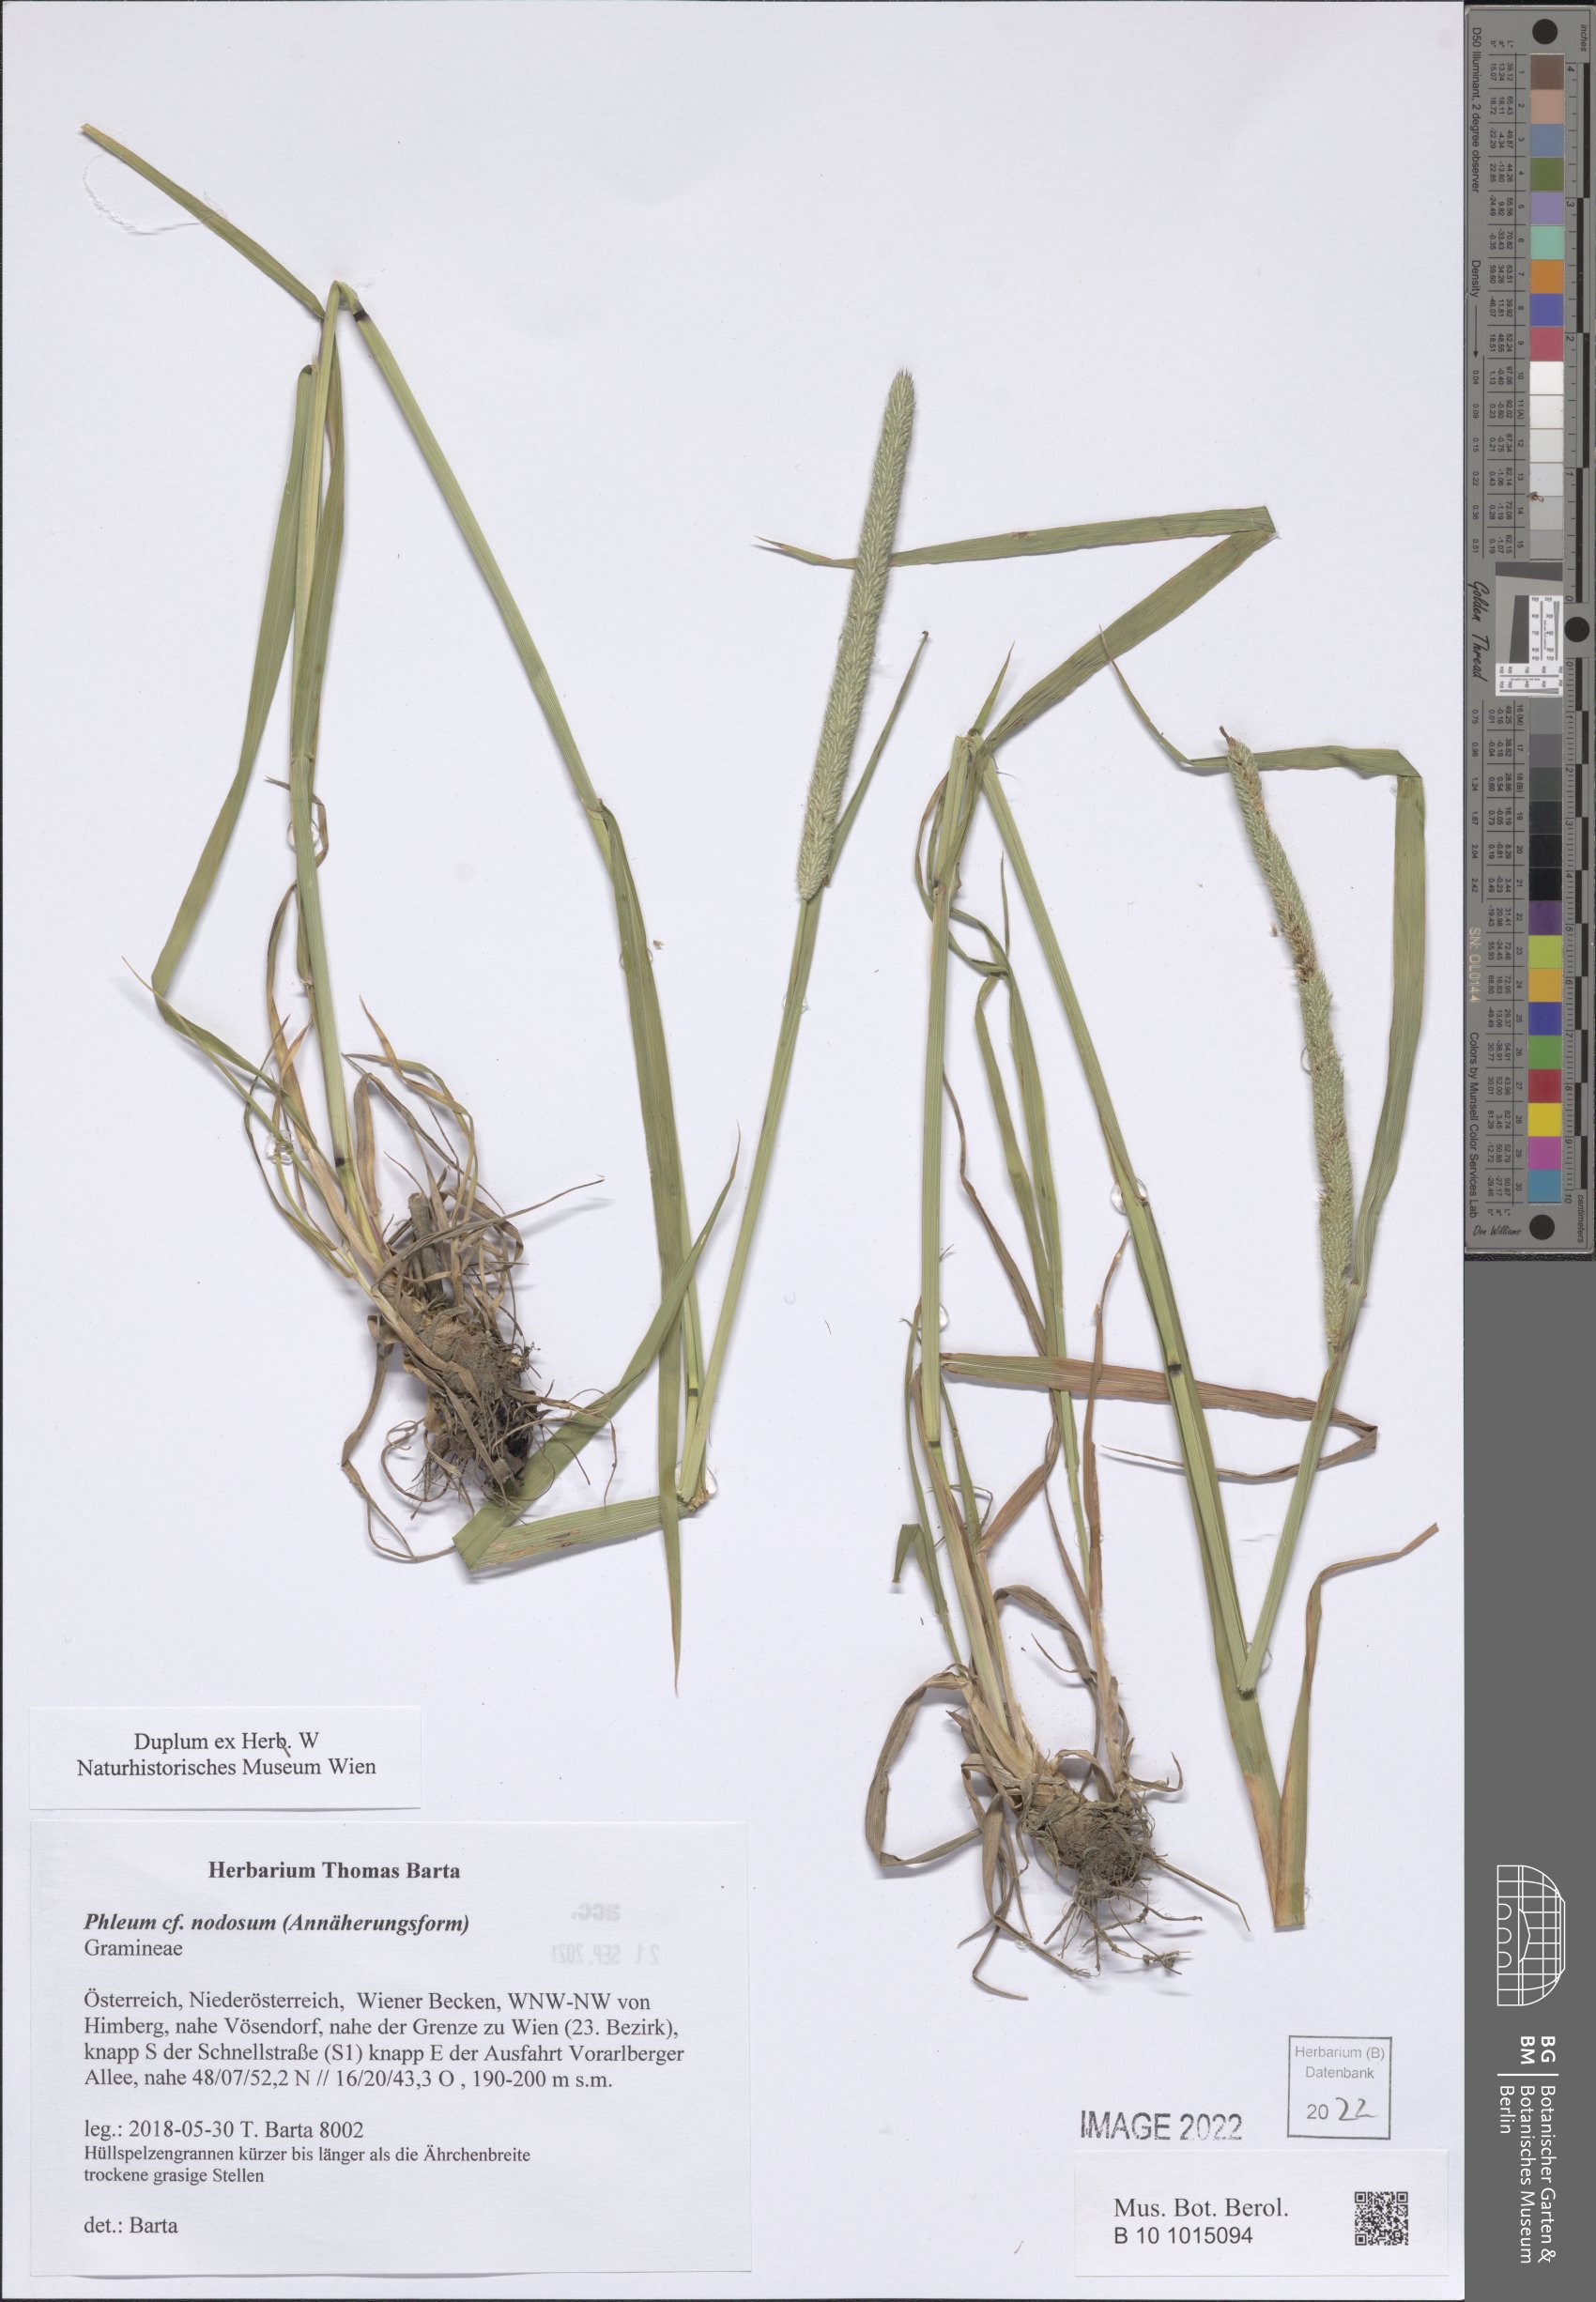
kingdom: Plantae
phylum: Tracheophyta
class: Liliopsida
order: Poales
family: Poaceae
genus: Phleum
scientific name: Phleum pratense
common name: Timothy grass
